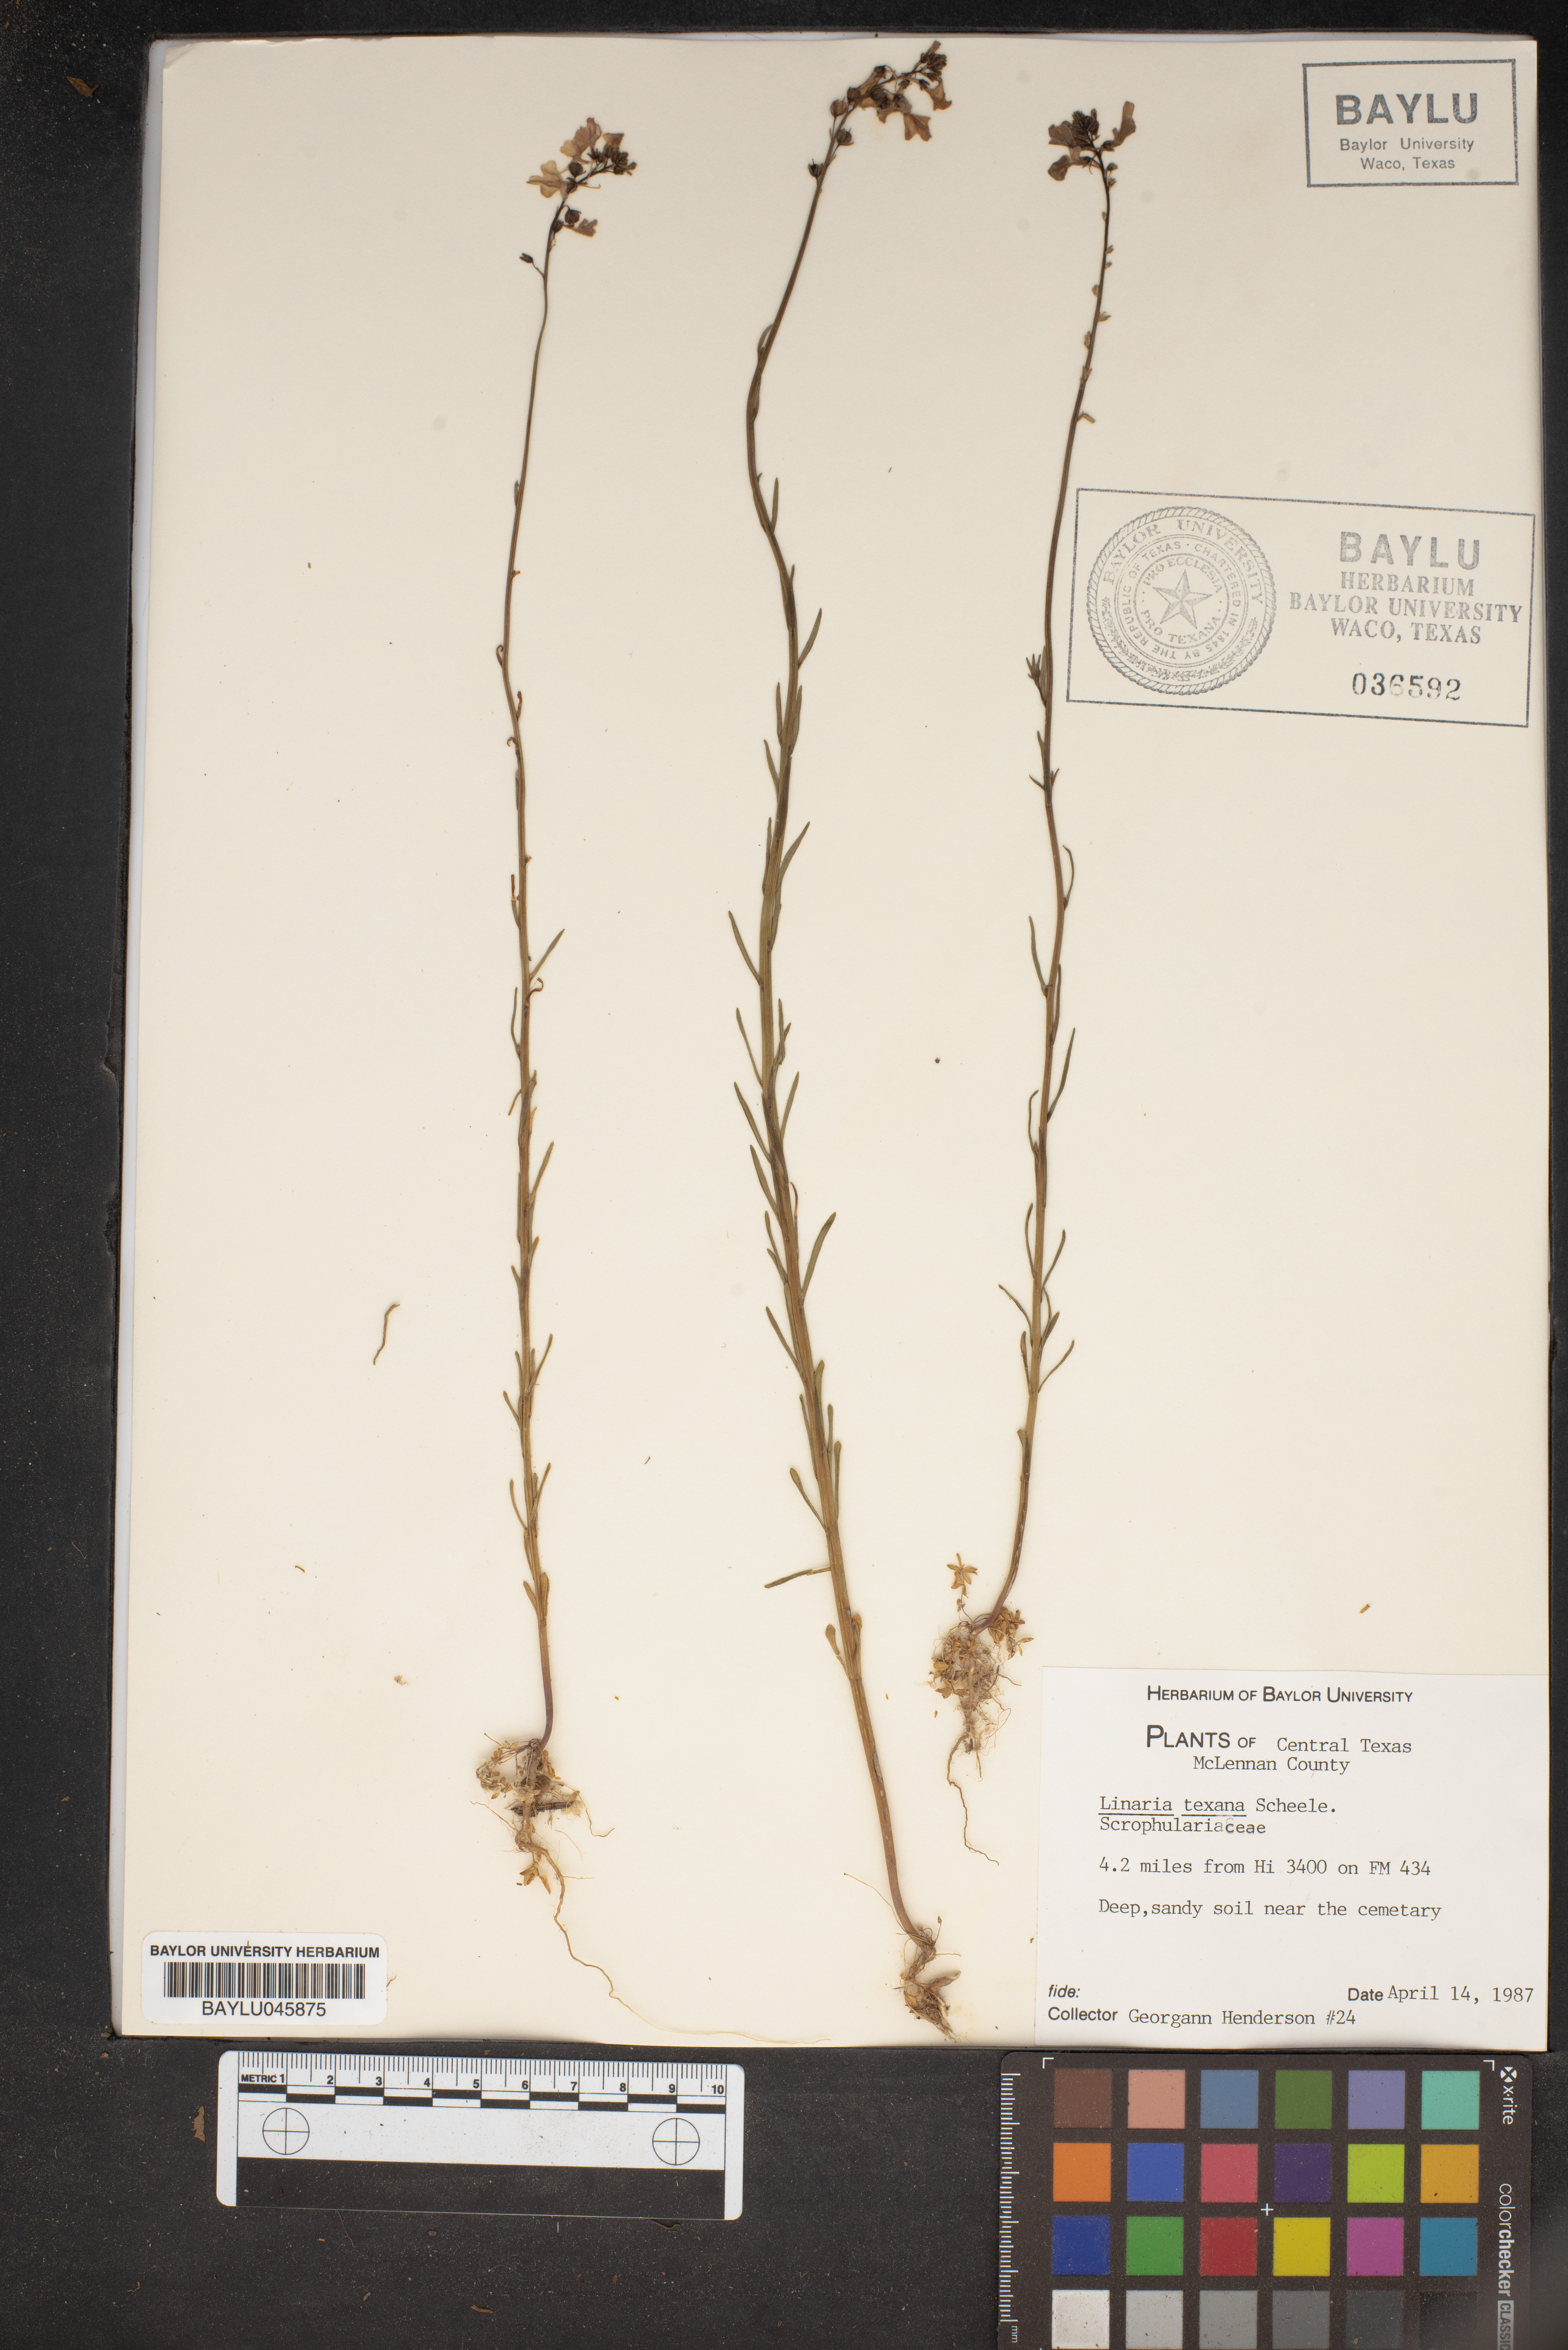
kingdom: Plantae
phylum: Tracheophyta
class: Magnoliopsida
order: Lamiales
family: Plantaginaceae
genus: Nuttallanthus
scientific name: Nuttallanthus texanus
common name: Texas toadflax
